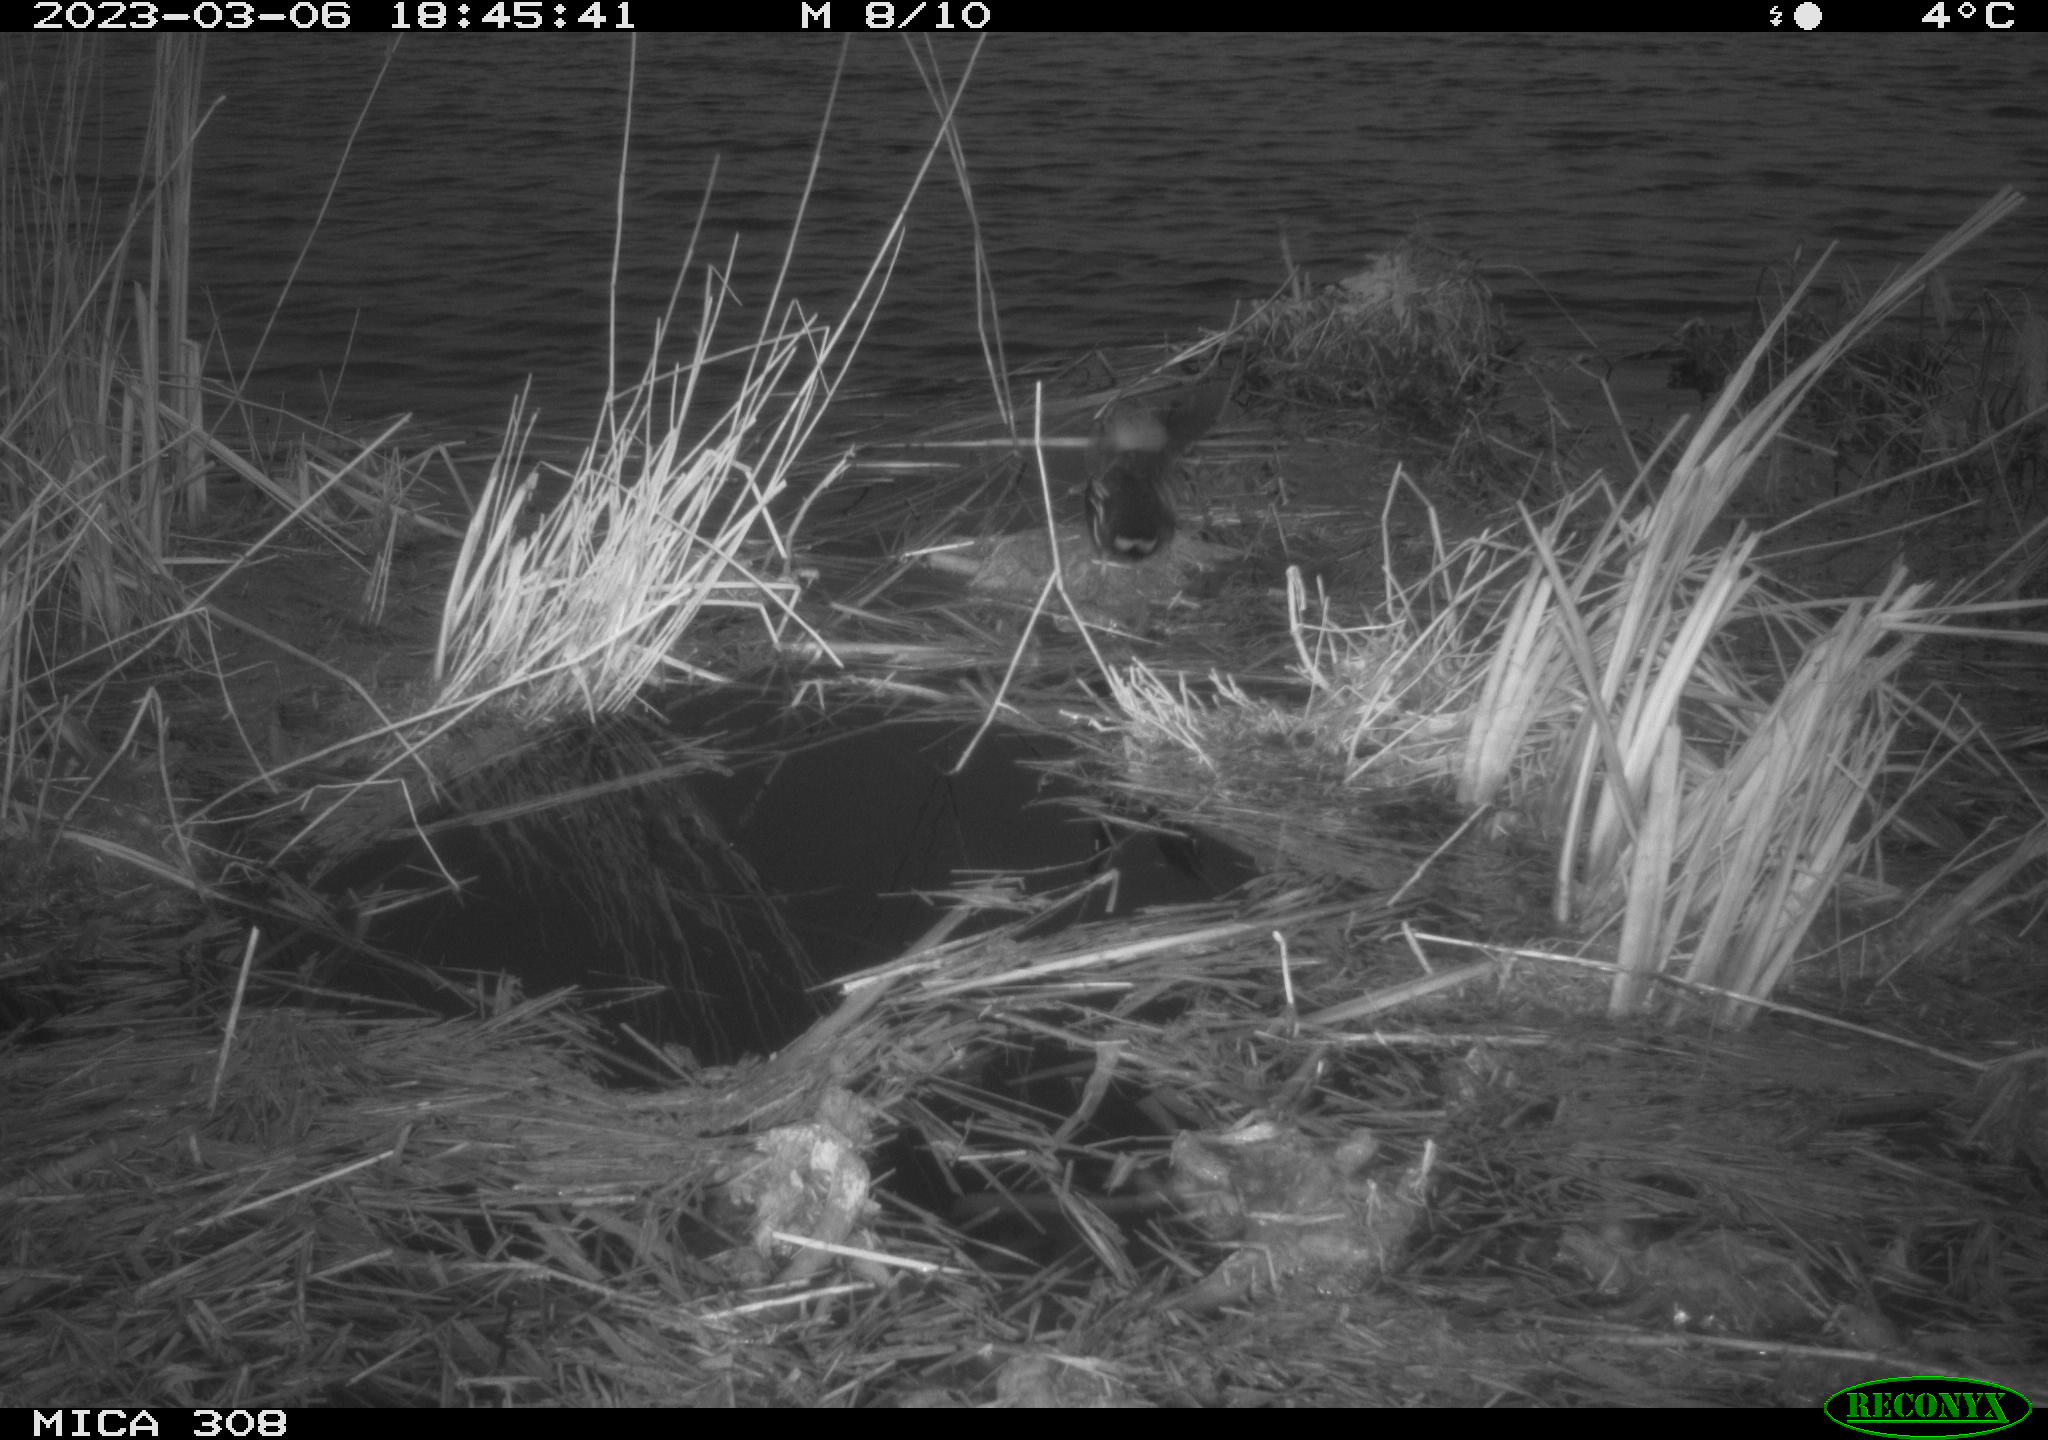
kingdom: Animalia
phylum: Chordata
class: Mammalia
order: Rodentia
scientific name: Rodentia
